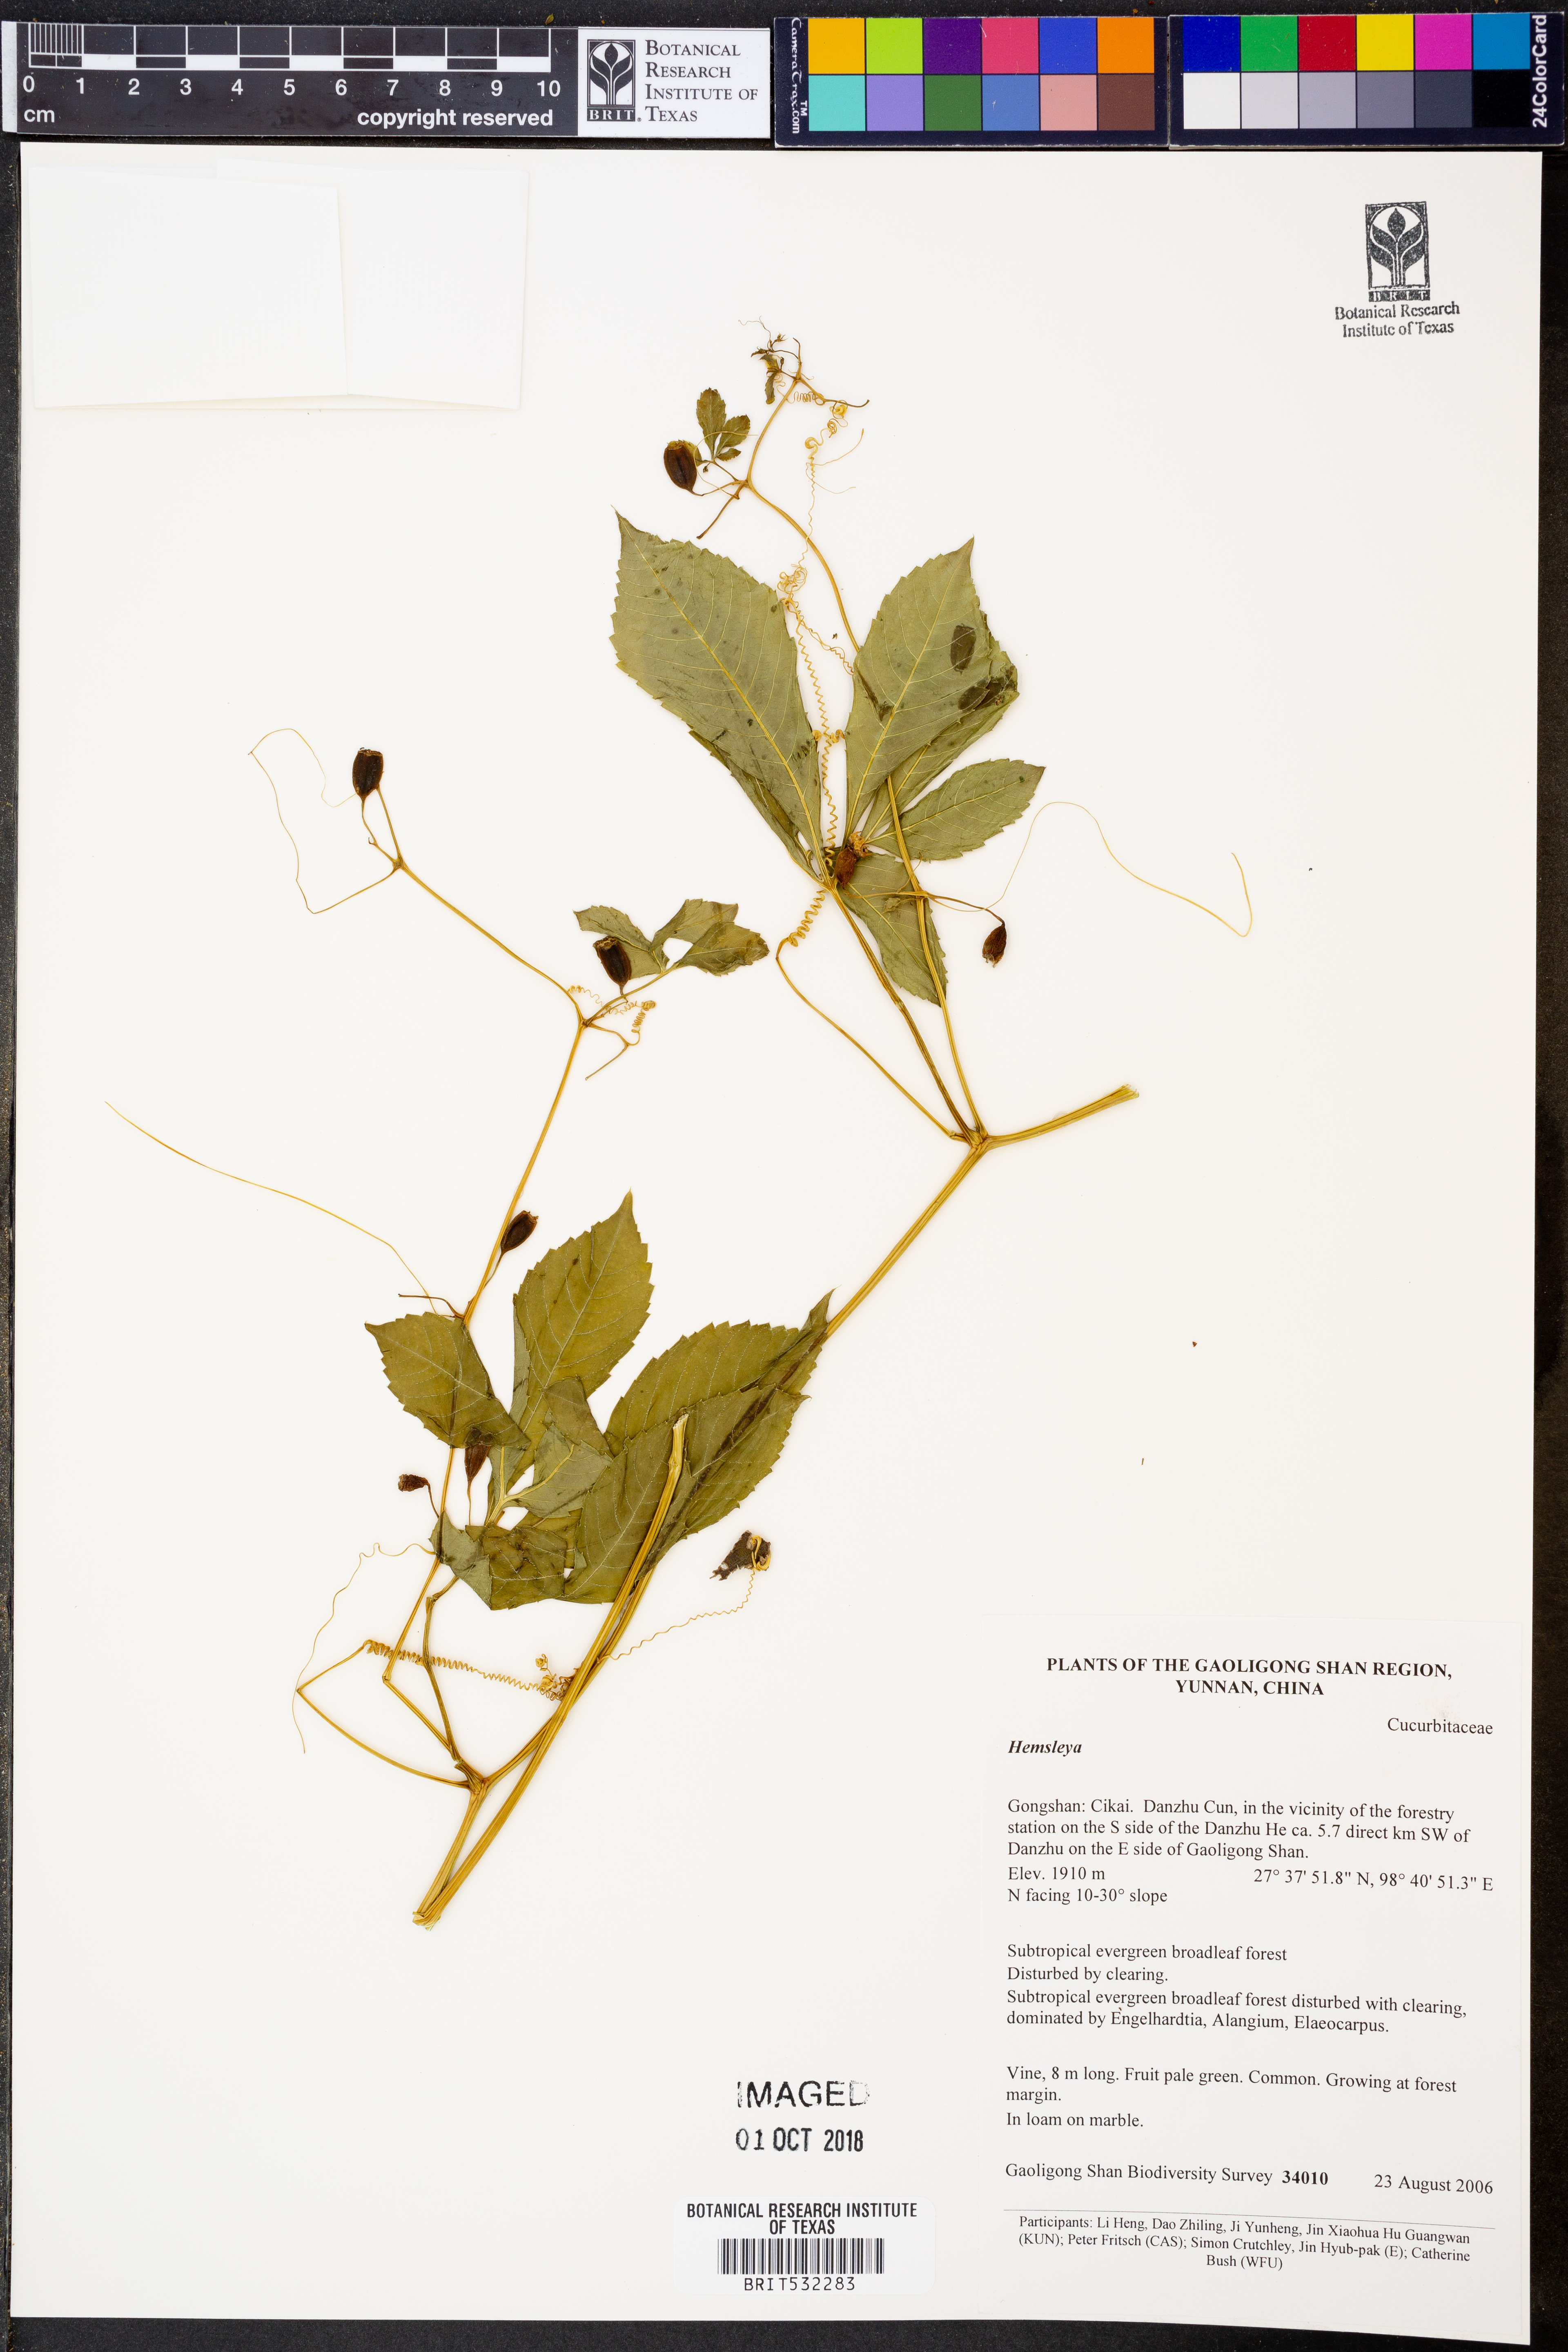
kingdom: Plantae
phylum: Tracheophyta
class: Magnoliopsida
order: Cucurbitales
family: Cucurbitaceae
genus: Hemsleya
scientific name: Hemsleya
